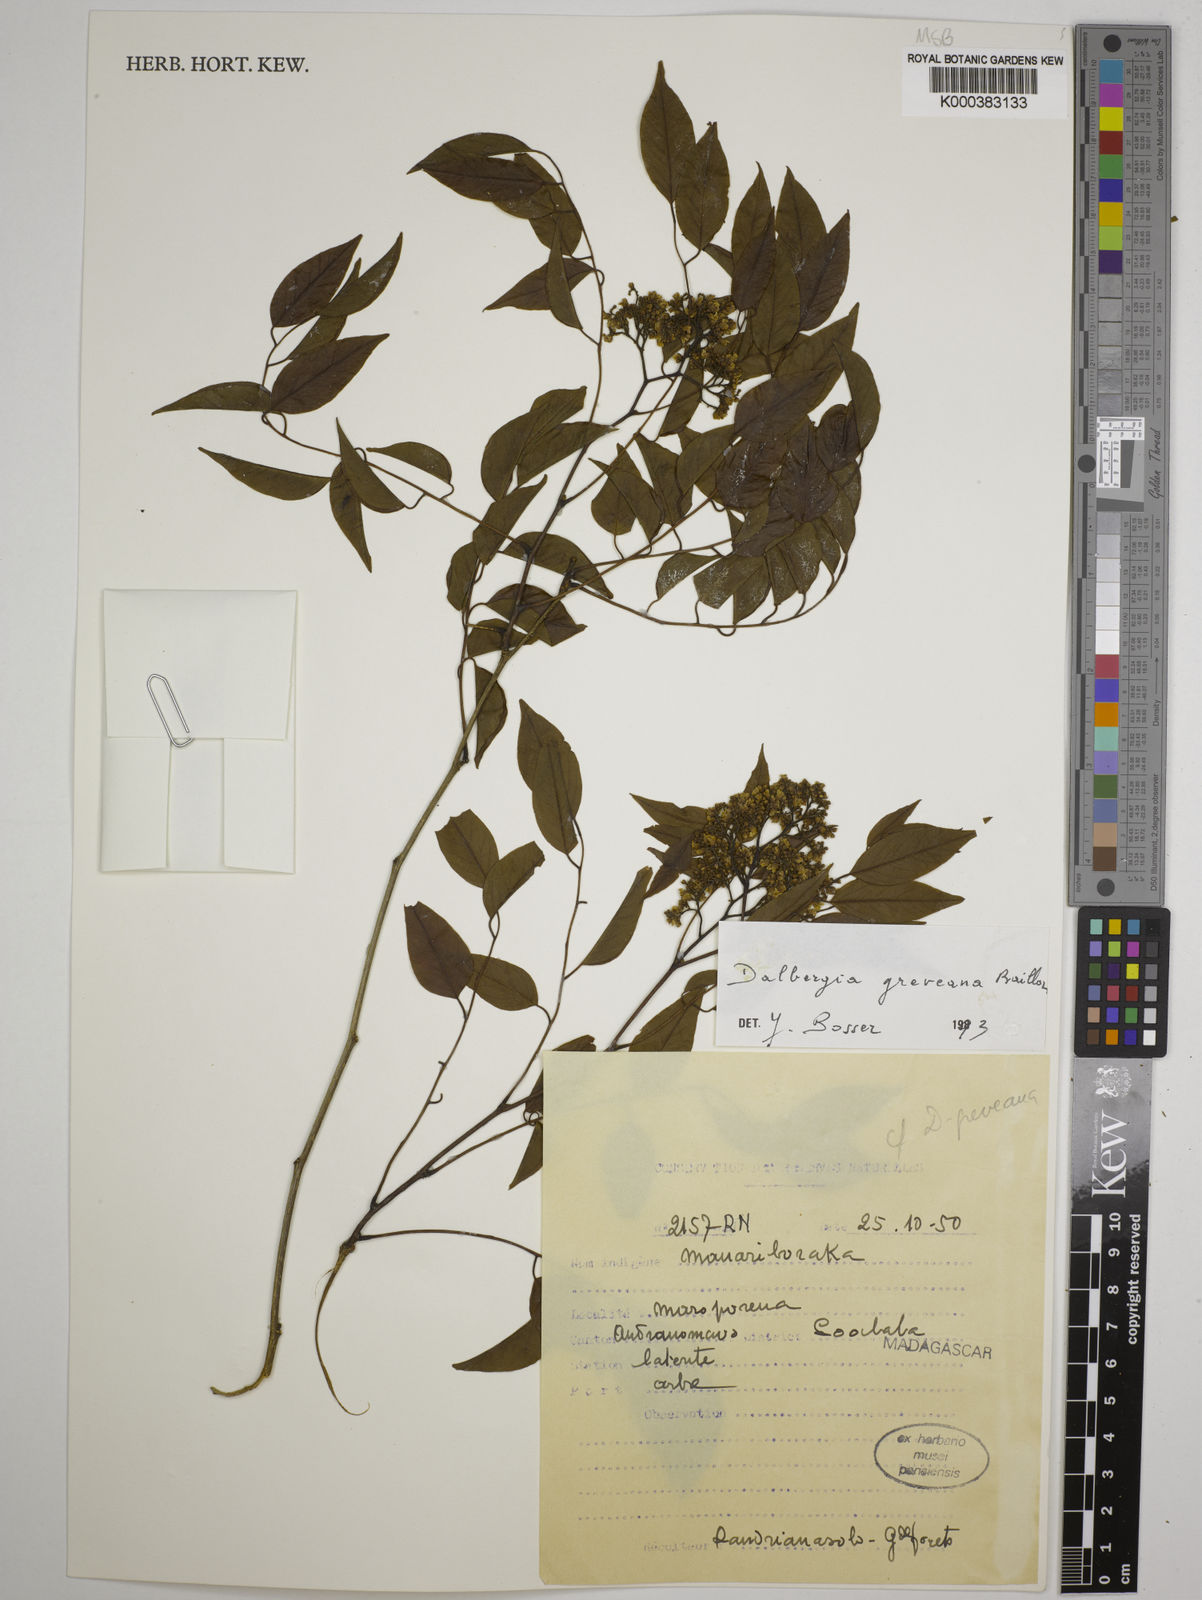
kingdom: Plantae
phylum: Tracheophyta
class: Magnoliopsida
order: Fabales
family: Fabaceae
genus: Dalbergia
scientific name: Dalbergia greveana
